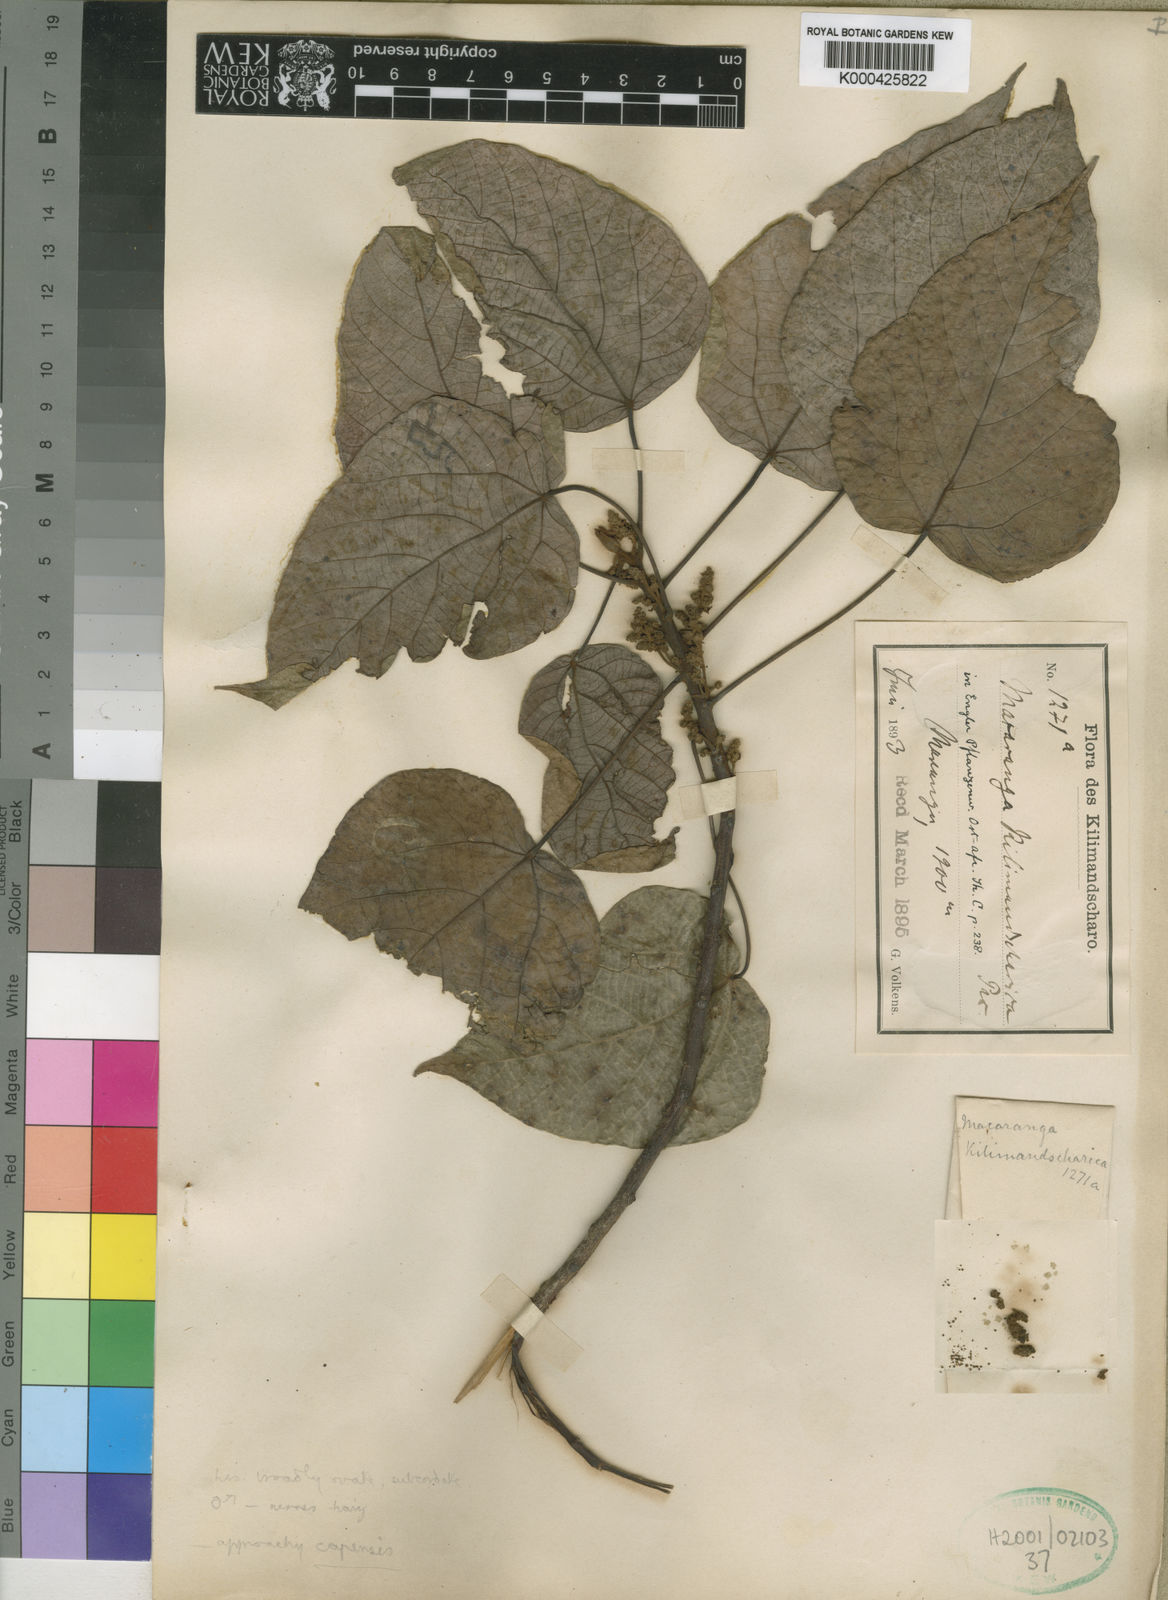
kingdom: Plantae
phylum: Tracheophyta
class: Magnoliopsida
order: Malpighiales
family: Euphorbiaceae
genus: Macaranga
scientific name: Macaranga kilimandscharica
